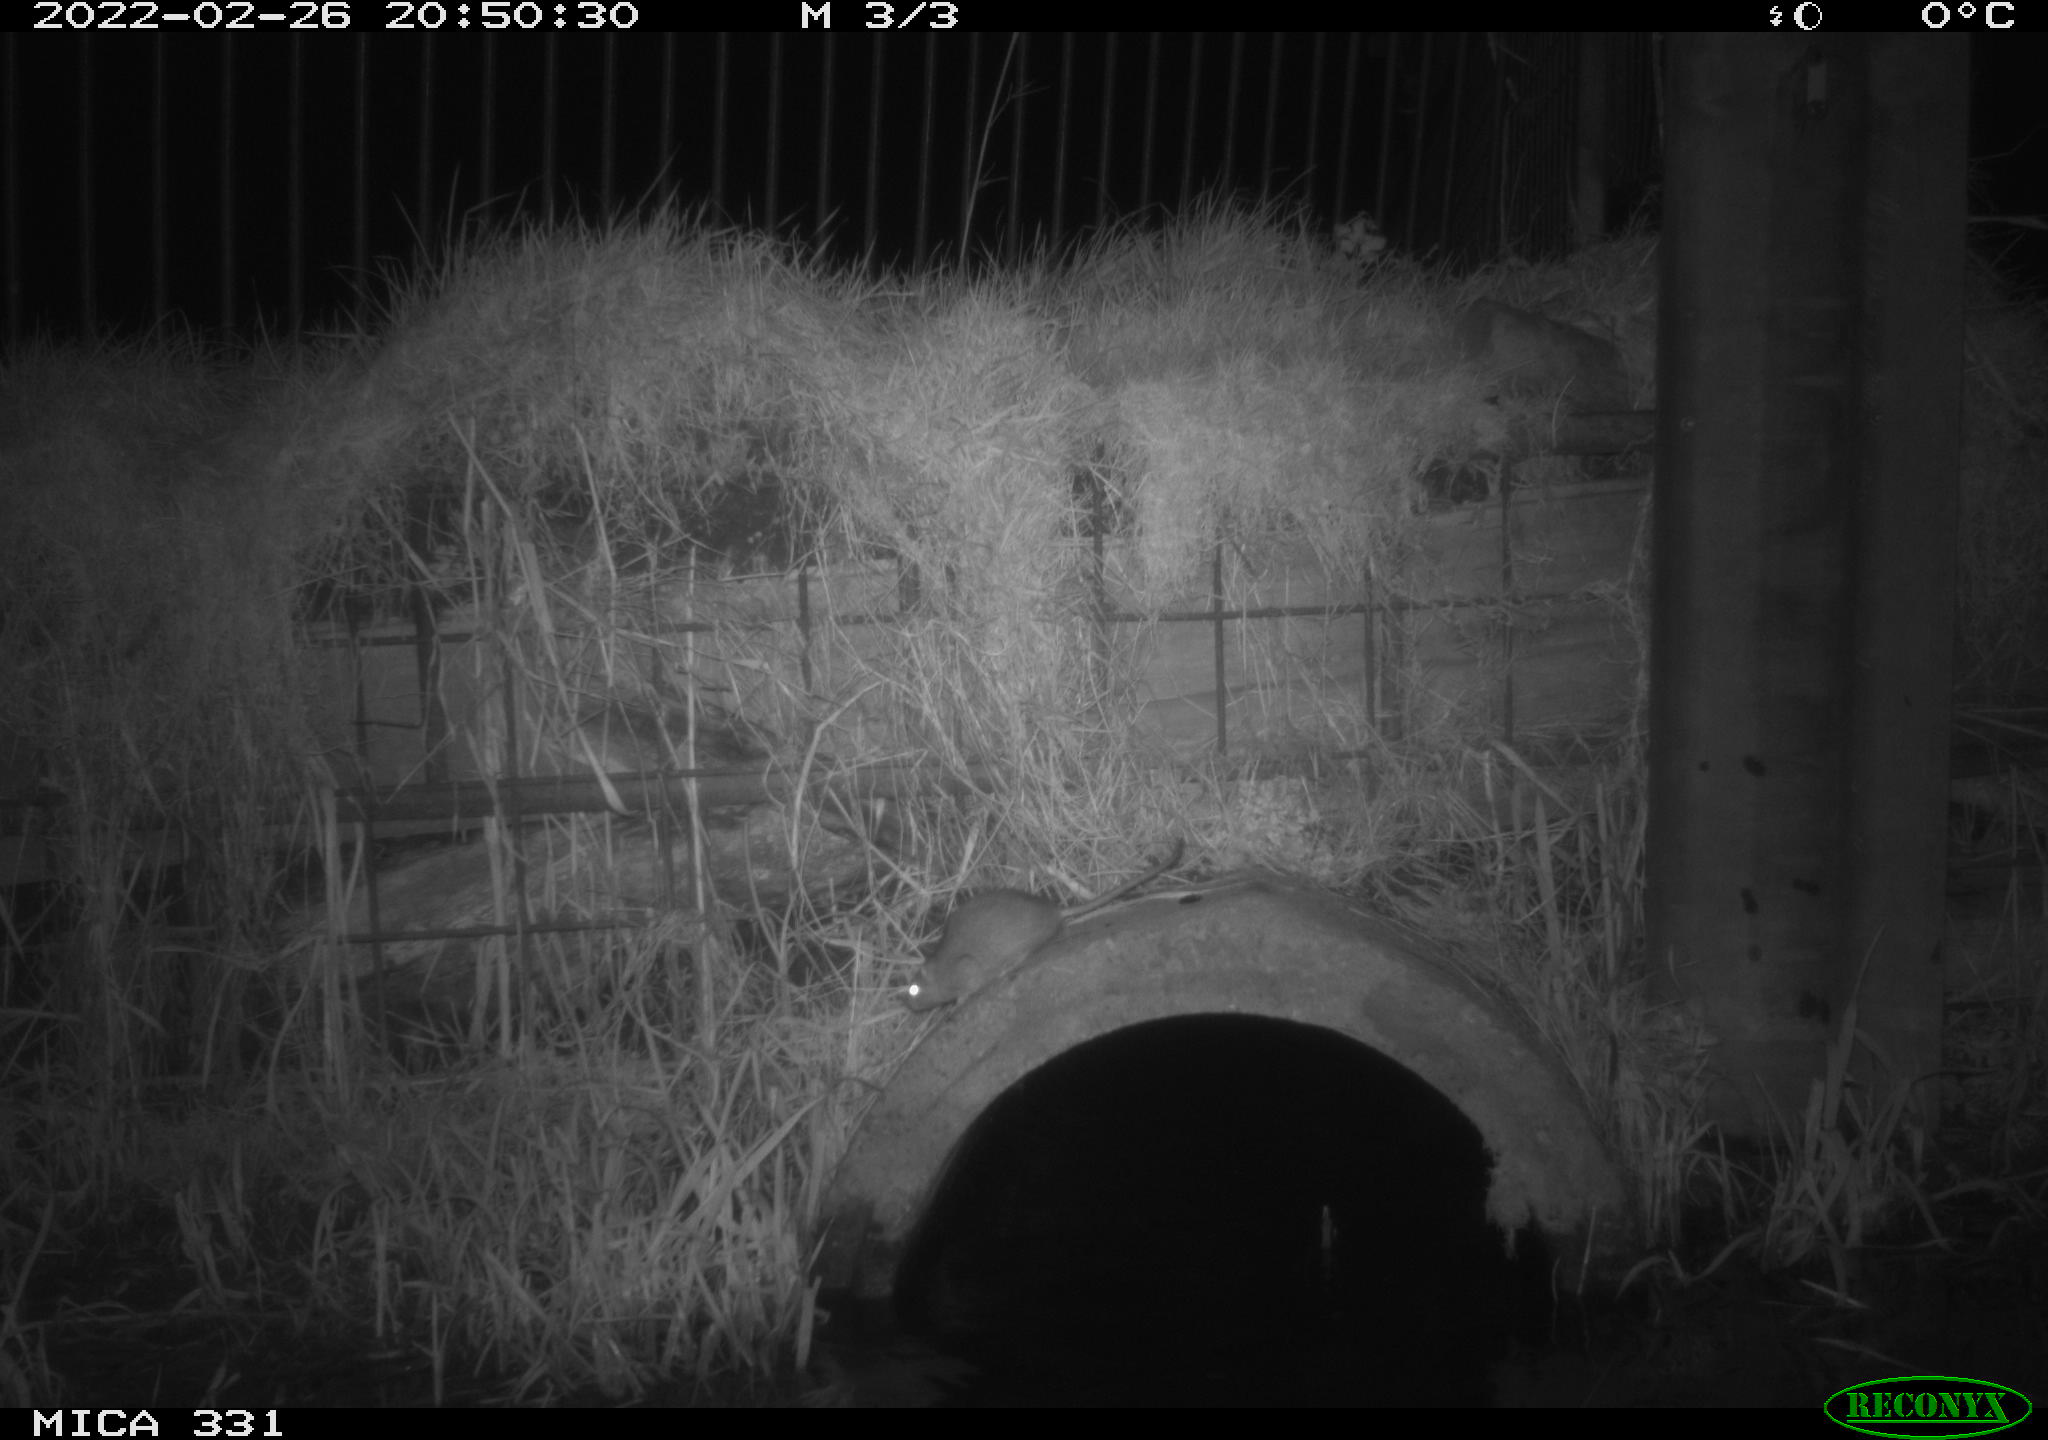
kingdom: Animalia
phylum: Chordata
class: Mammalia
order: Rodentia
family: Muridae
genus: Rattus
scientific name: Rattus norvegicus
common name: Brown rat
